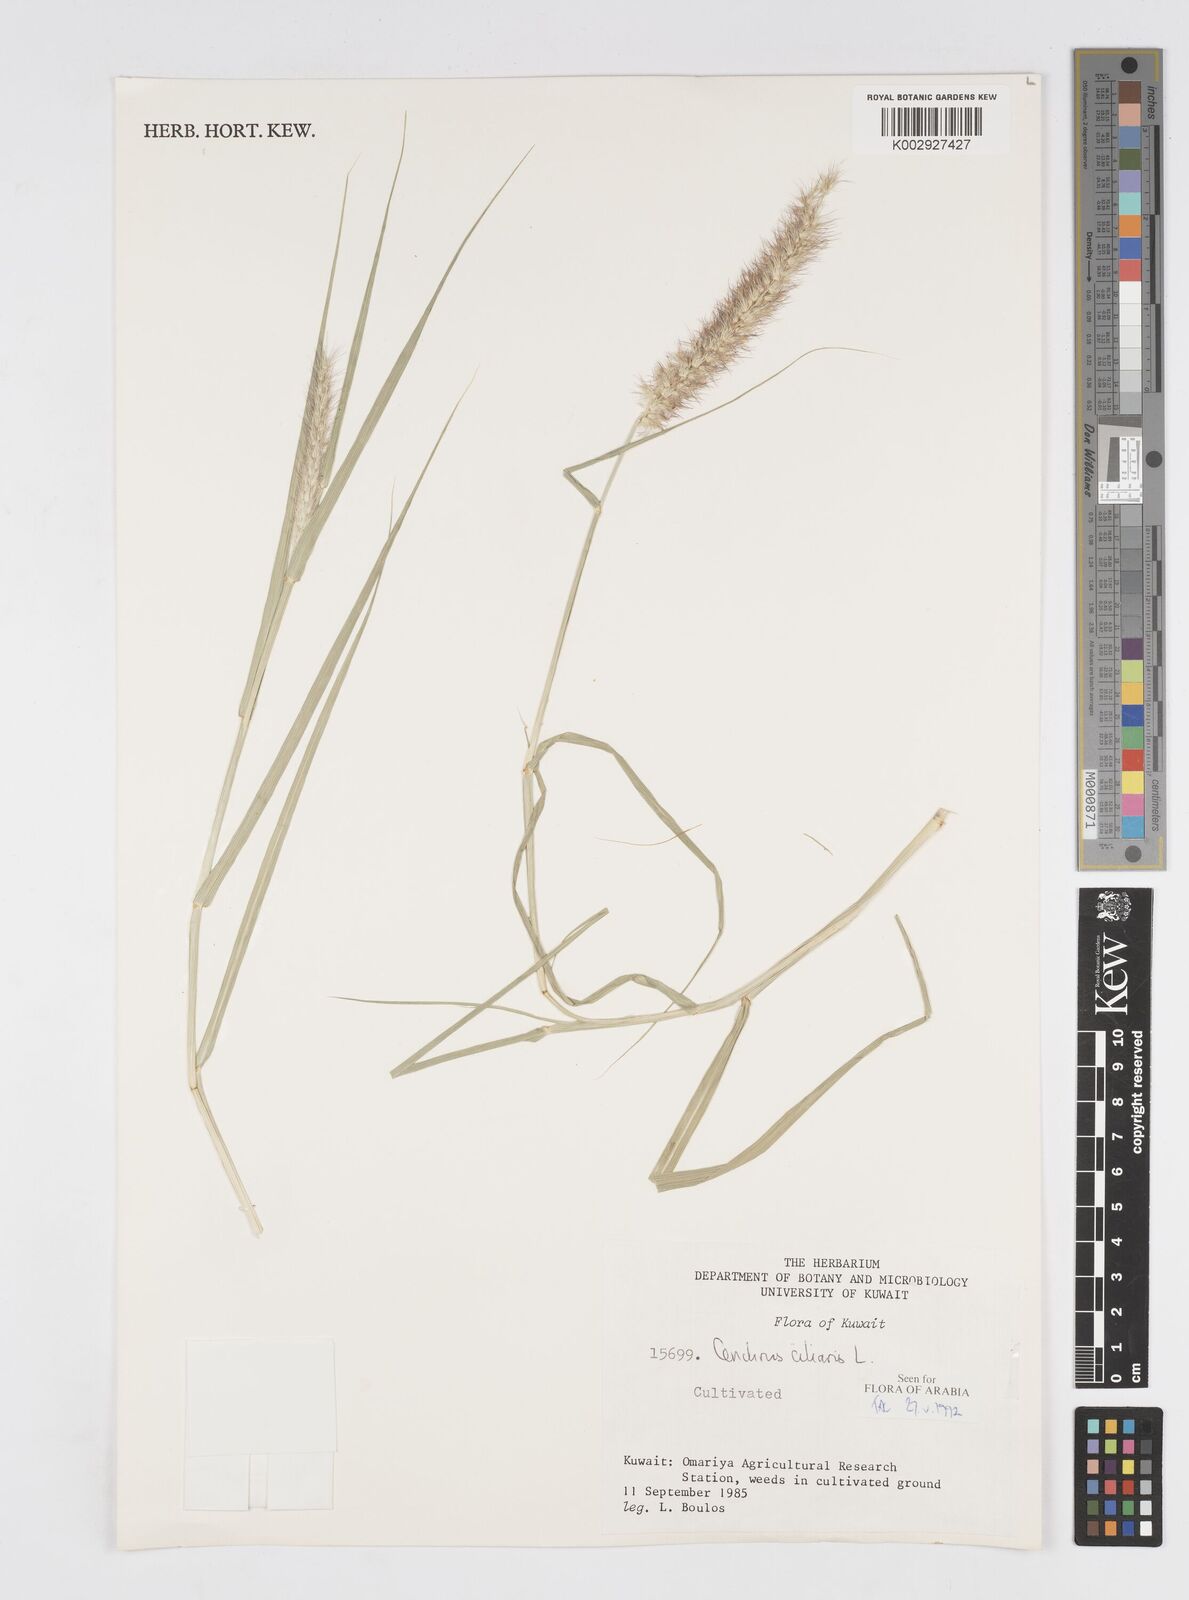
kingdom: Plantae
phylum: Tracheophyta
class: Liliopsida
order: Poales
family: Poaceae
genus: Cenchrus
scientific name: Cenchrus ciliaris
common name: Buffelgrass
